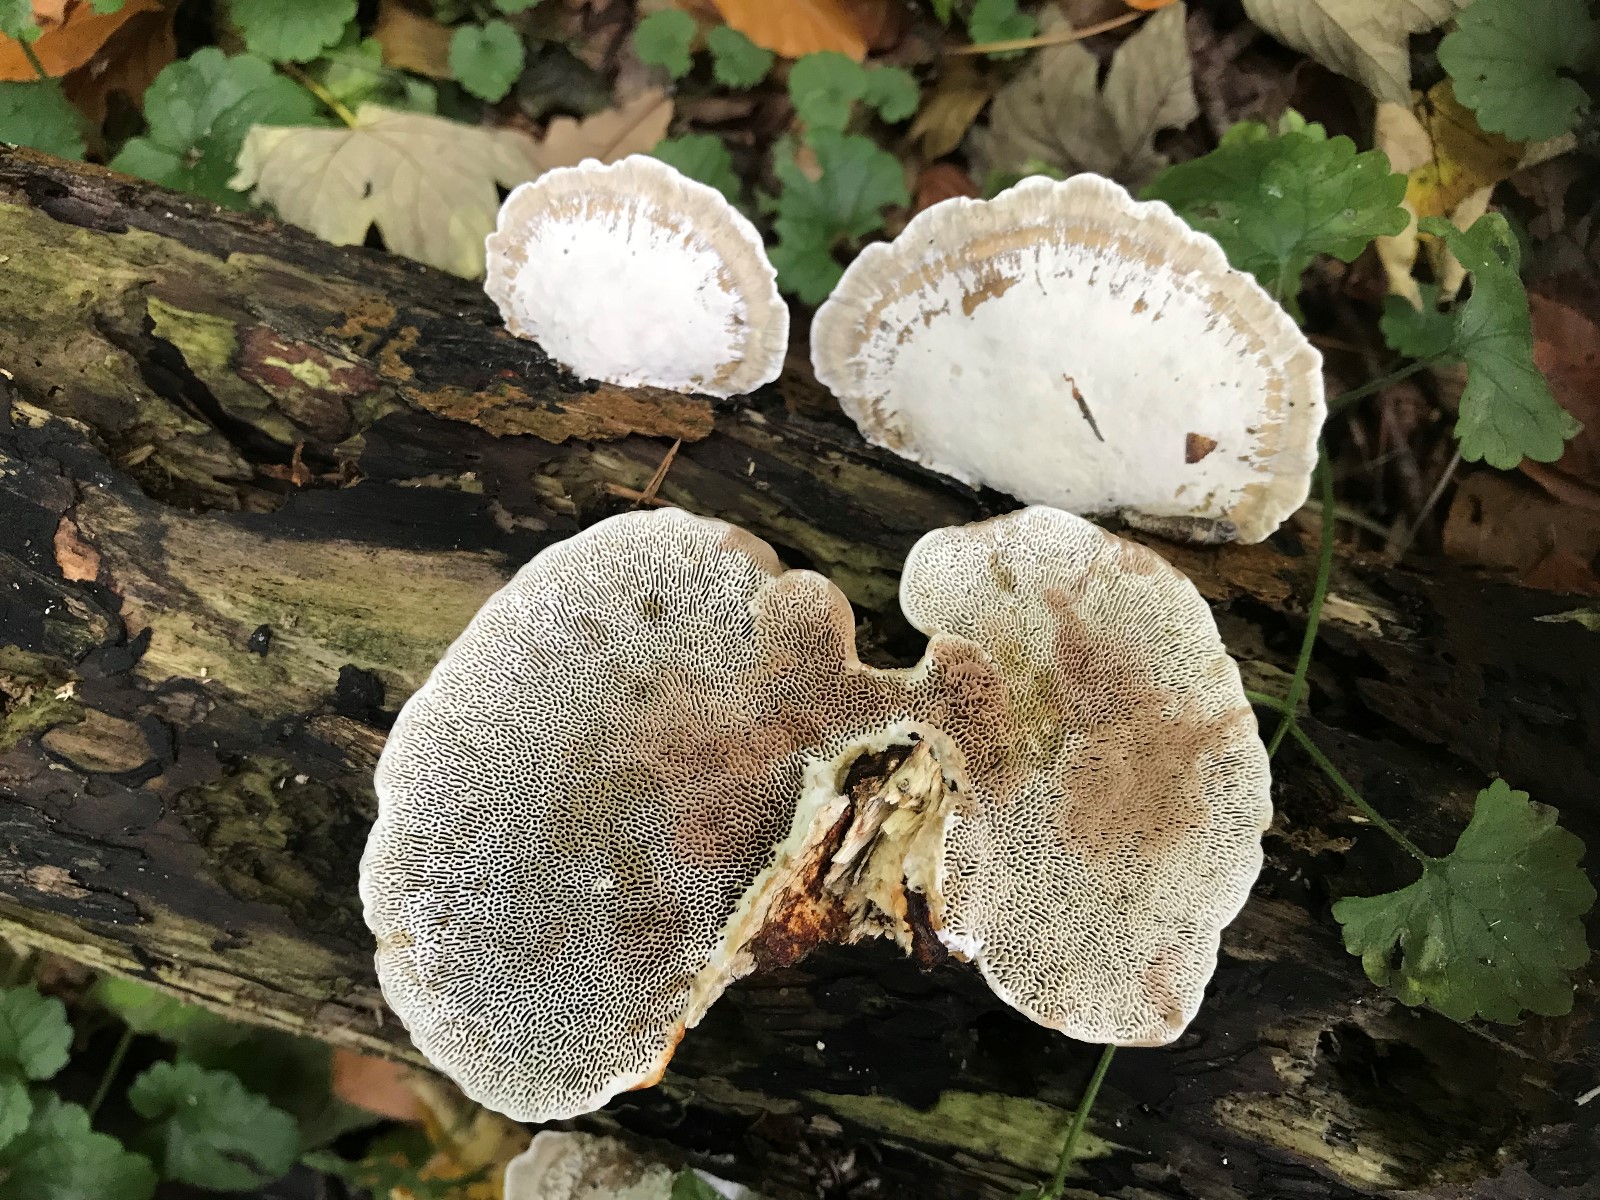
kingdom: Fungi
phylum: Basidiomycota
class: Agaricomycetes
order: Polyporales
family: Polyporaceae
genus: Daedaleopsis
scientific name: Daedaleopsis confragosa
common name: rødmende læderporesvamp
